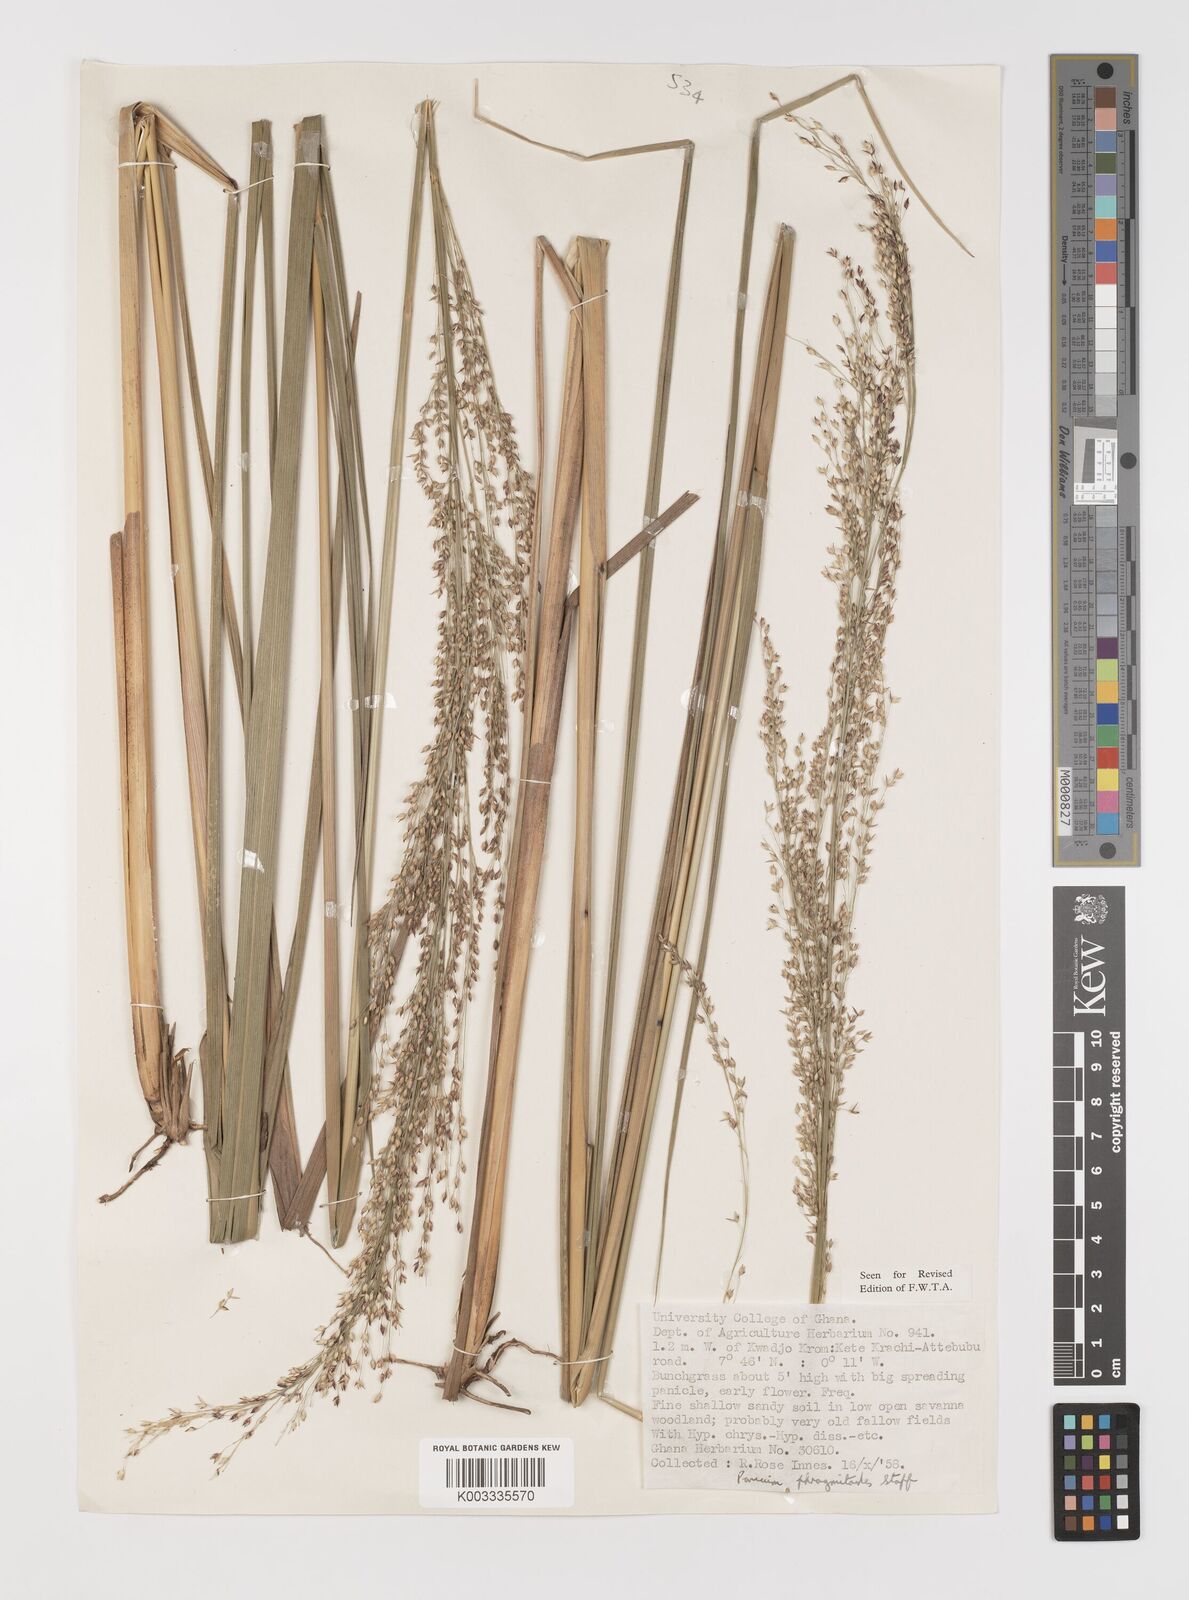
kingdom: Plantae
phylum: Tracheophyta
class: Liliopsida
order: Poales
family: Poaceae
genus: Panicum
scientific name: Panicum phragmitoides
